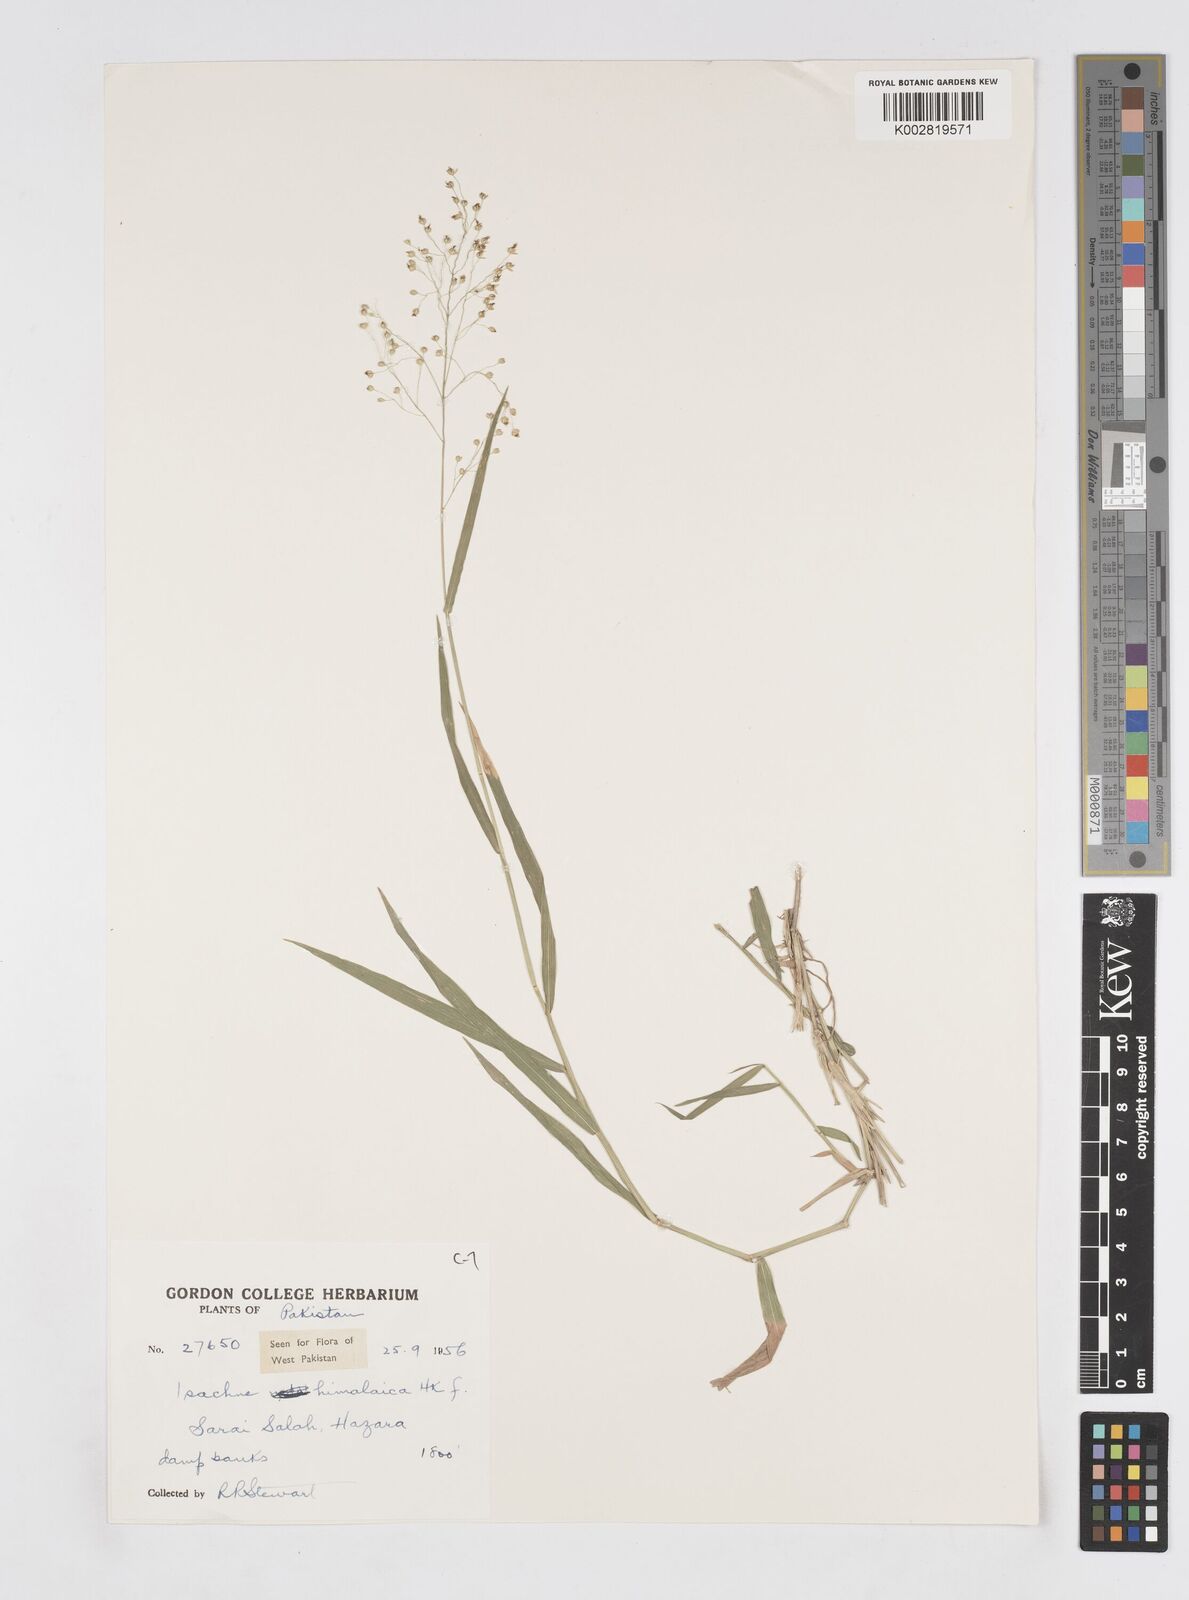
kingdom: Plantae
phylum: Tracheophyta
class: Liliopsida
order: Poales
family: Poaceae
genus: Isachne
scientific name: Isachne himalaica
